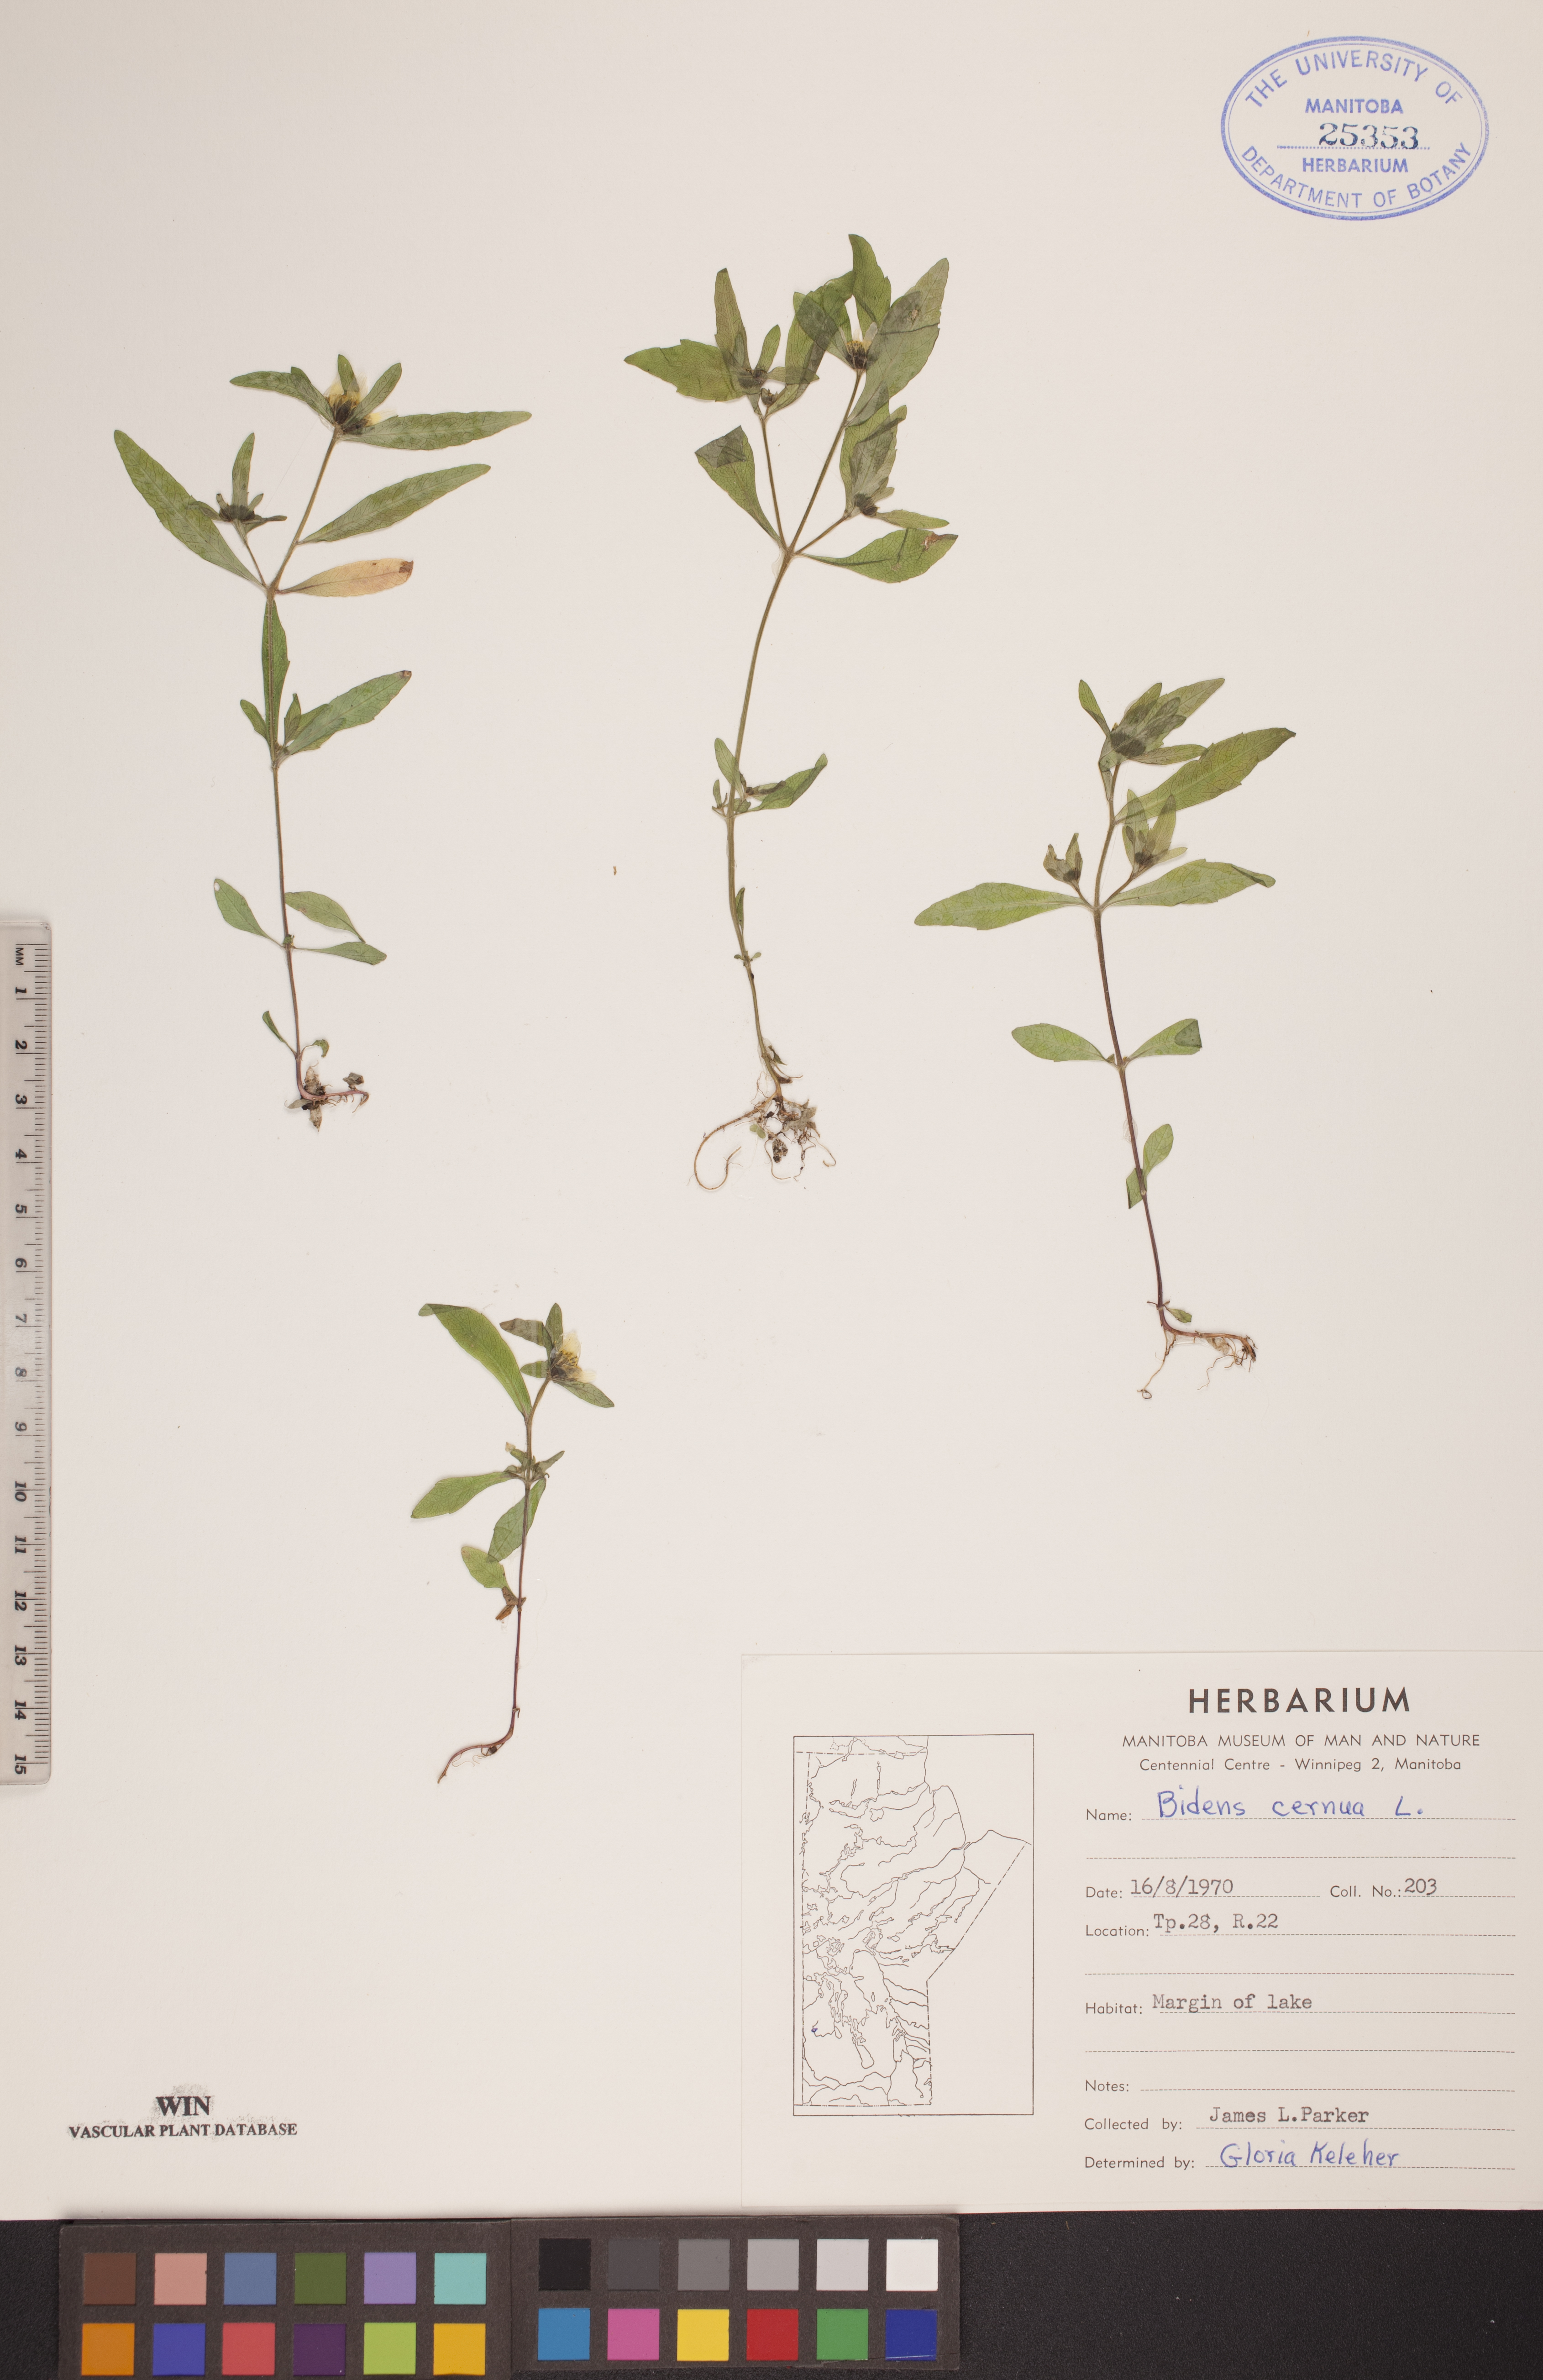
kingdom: Plantae
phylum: Tracheophyta
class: Magnoliopsida
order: Asterales
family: Asteraceae
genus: Bidens
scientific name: Bidens cernua
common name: Nodding bur-marigold
